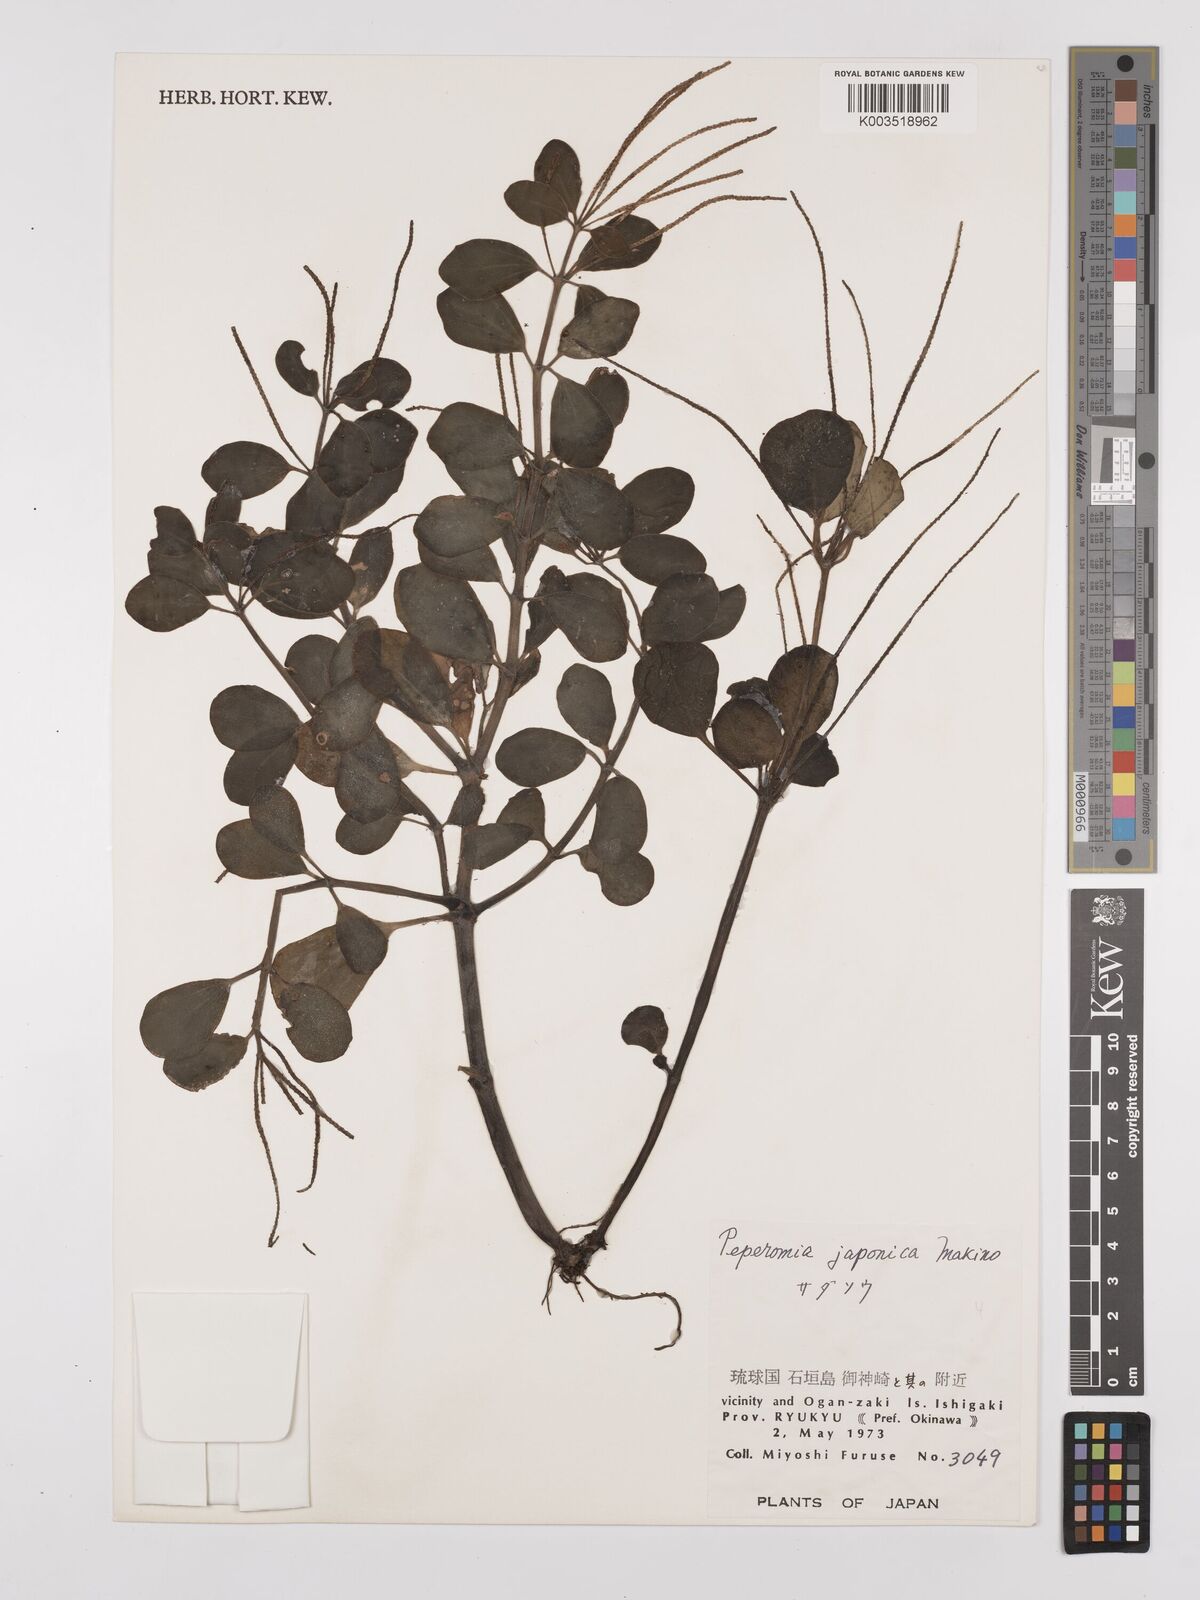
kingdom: Plantae
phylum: Tracheophyta
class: Magnoliopsida
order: Piperales
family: Piperaceae
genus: Peperomia
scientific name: Peperomia japonica
